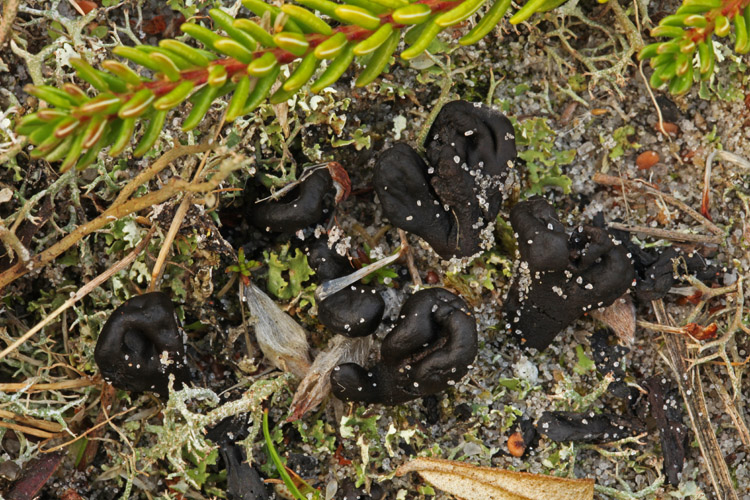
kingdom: Fungi
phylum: Ascomycota
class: Geoglossomycetes
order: Geoglossales
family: Geoglossaceae
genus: Sabuloglossum
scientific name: Sabuloglossum arenarium
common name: klit-jordtunge
